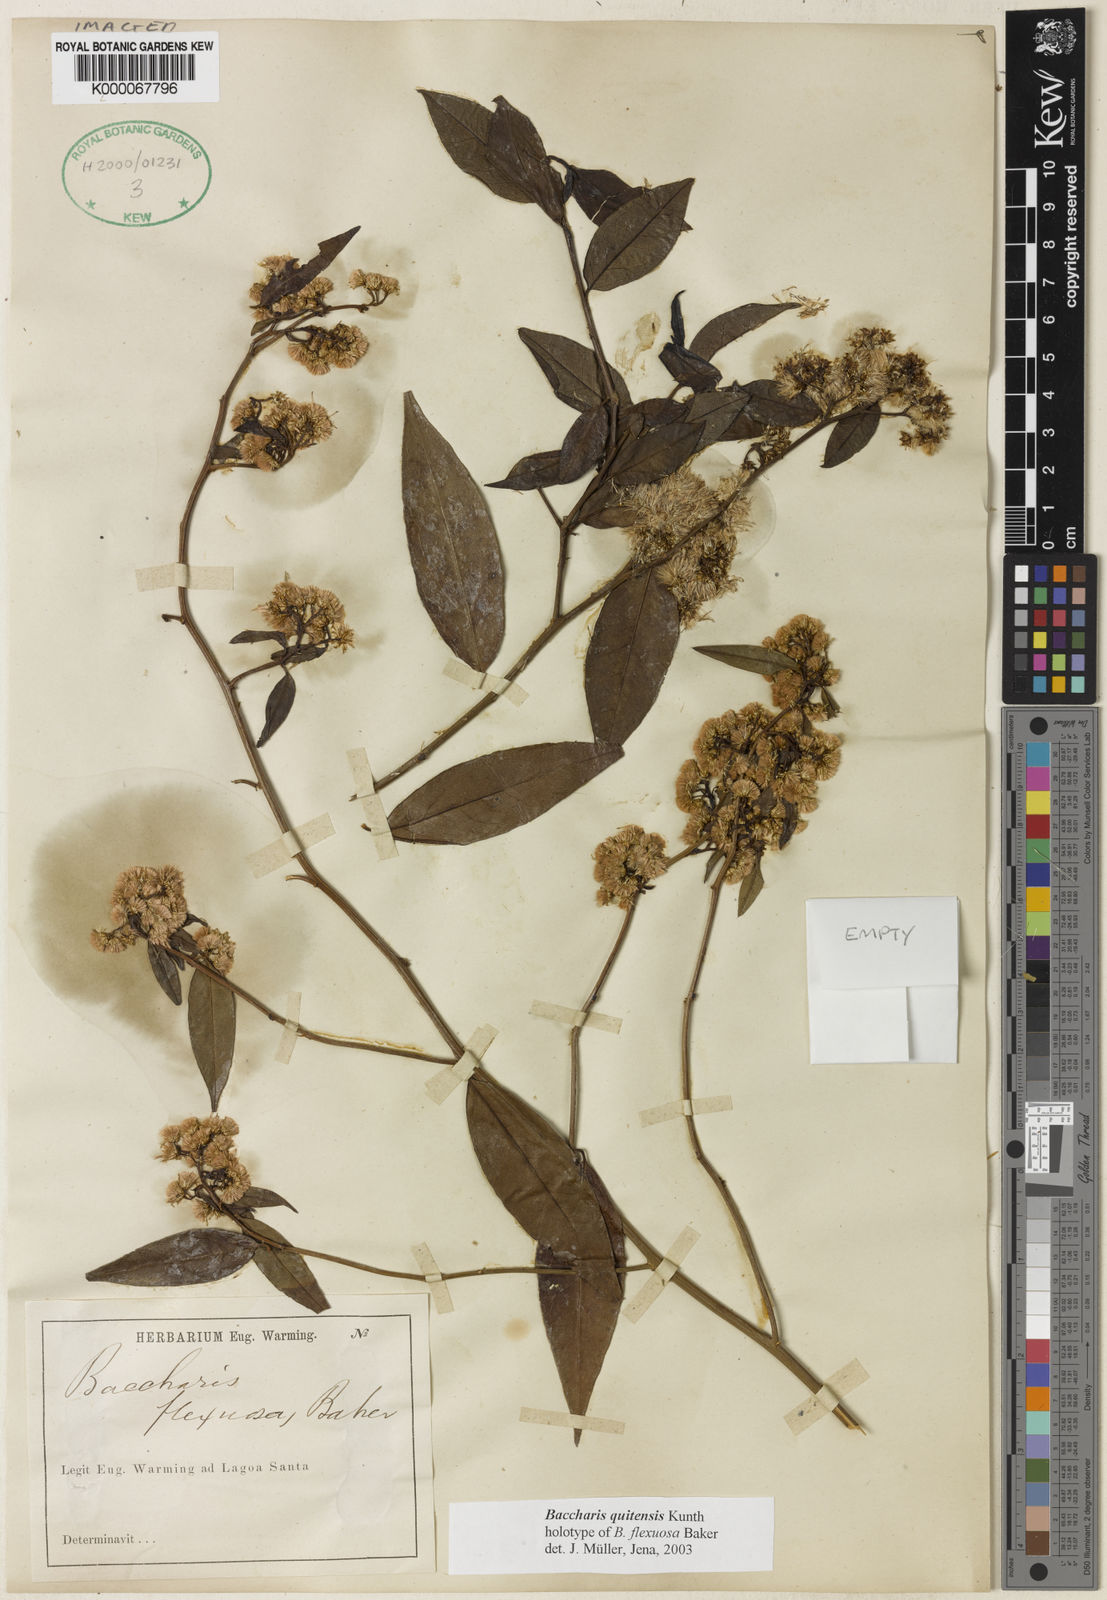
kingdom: Plantae
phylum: Tracheophyta
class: Magnoliopsida
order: Asterales
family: Asteraceae
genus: Baccharis
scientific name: Baccharis quitensis
